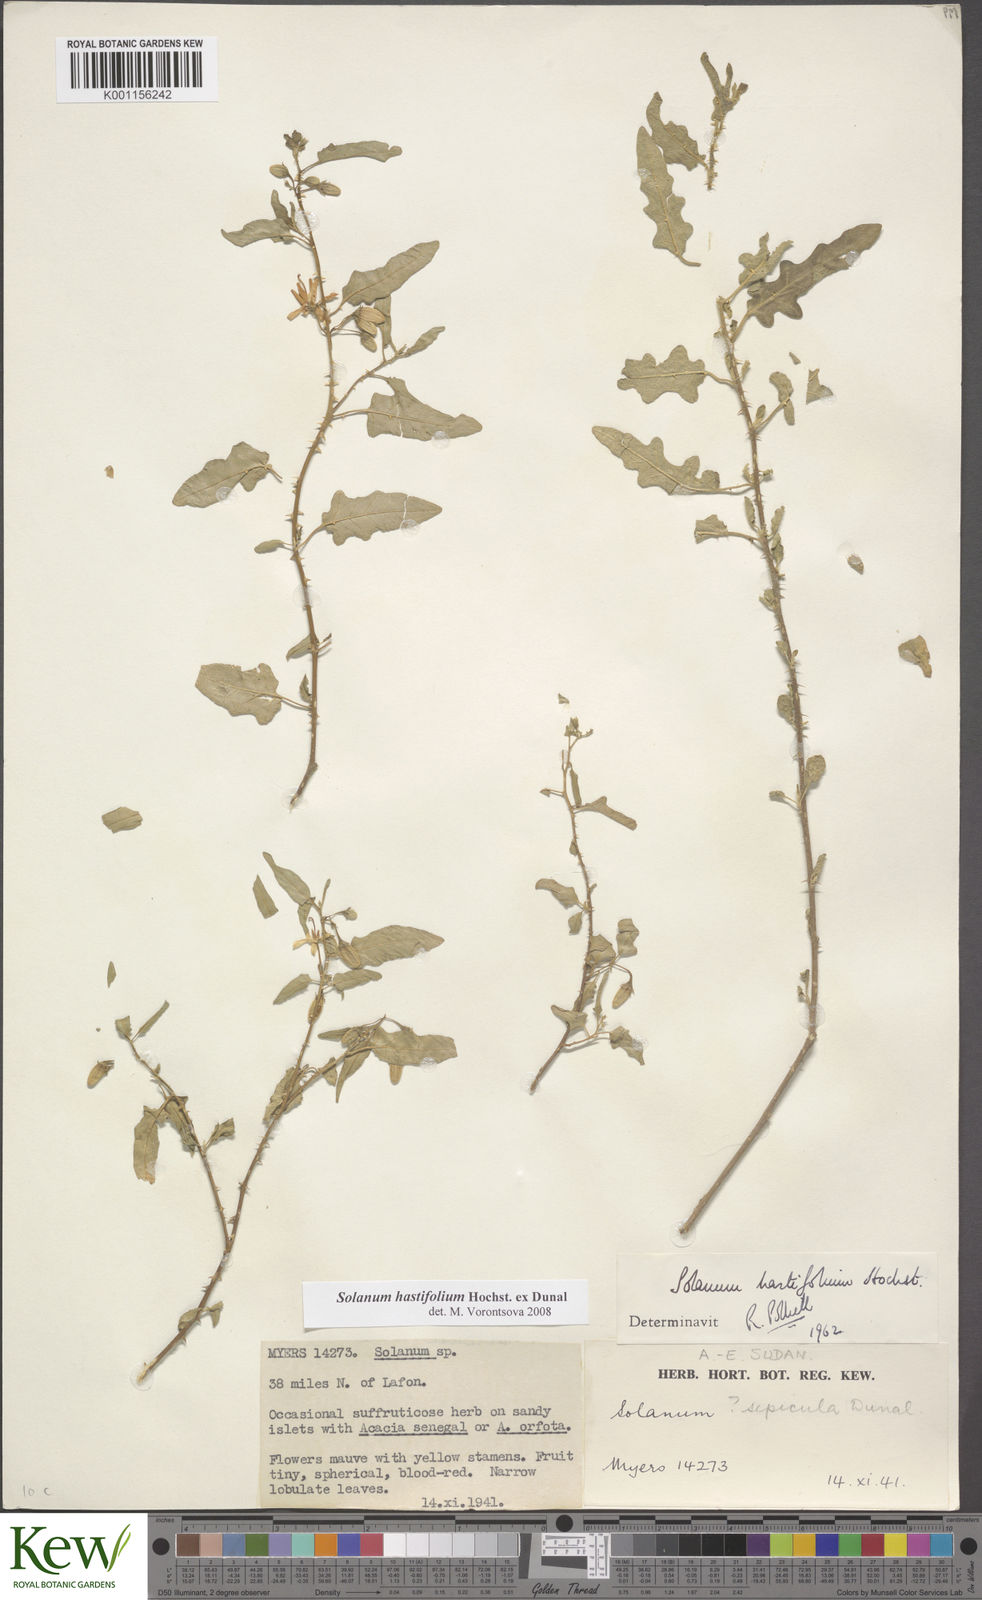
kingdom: Plantae
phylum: Tracheophyta
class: Magnoliopsida
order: Solanales
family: Solanaceae
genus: Solanum
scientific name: Solanum hastifolium
